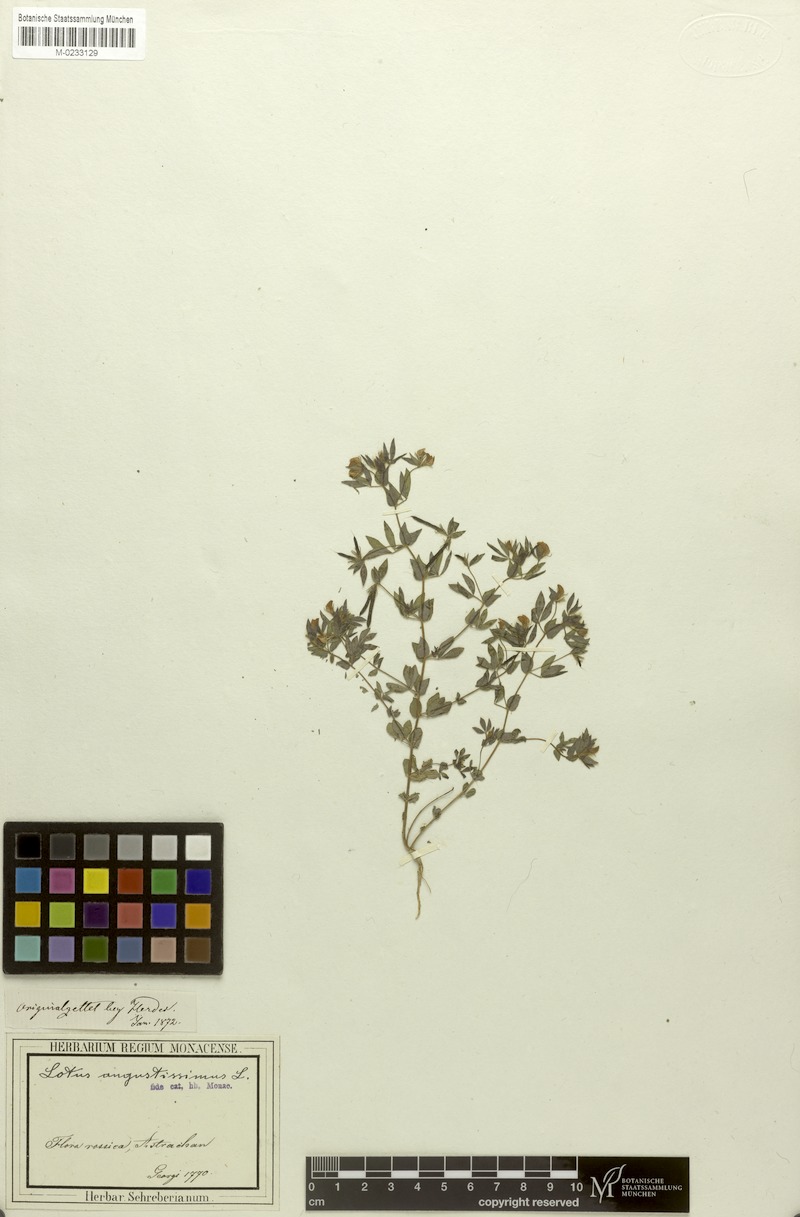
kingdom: Plantae
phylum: Tracheophyta
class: Magnoliopsida
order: Fabales
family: Fabaceae
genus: Lotus
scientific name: Lotus angustissimus
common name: Slender bird's-foot trefoil
